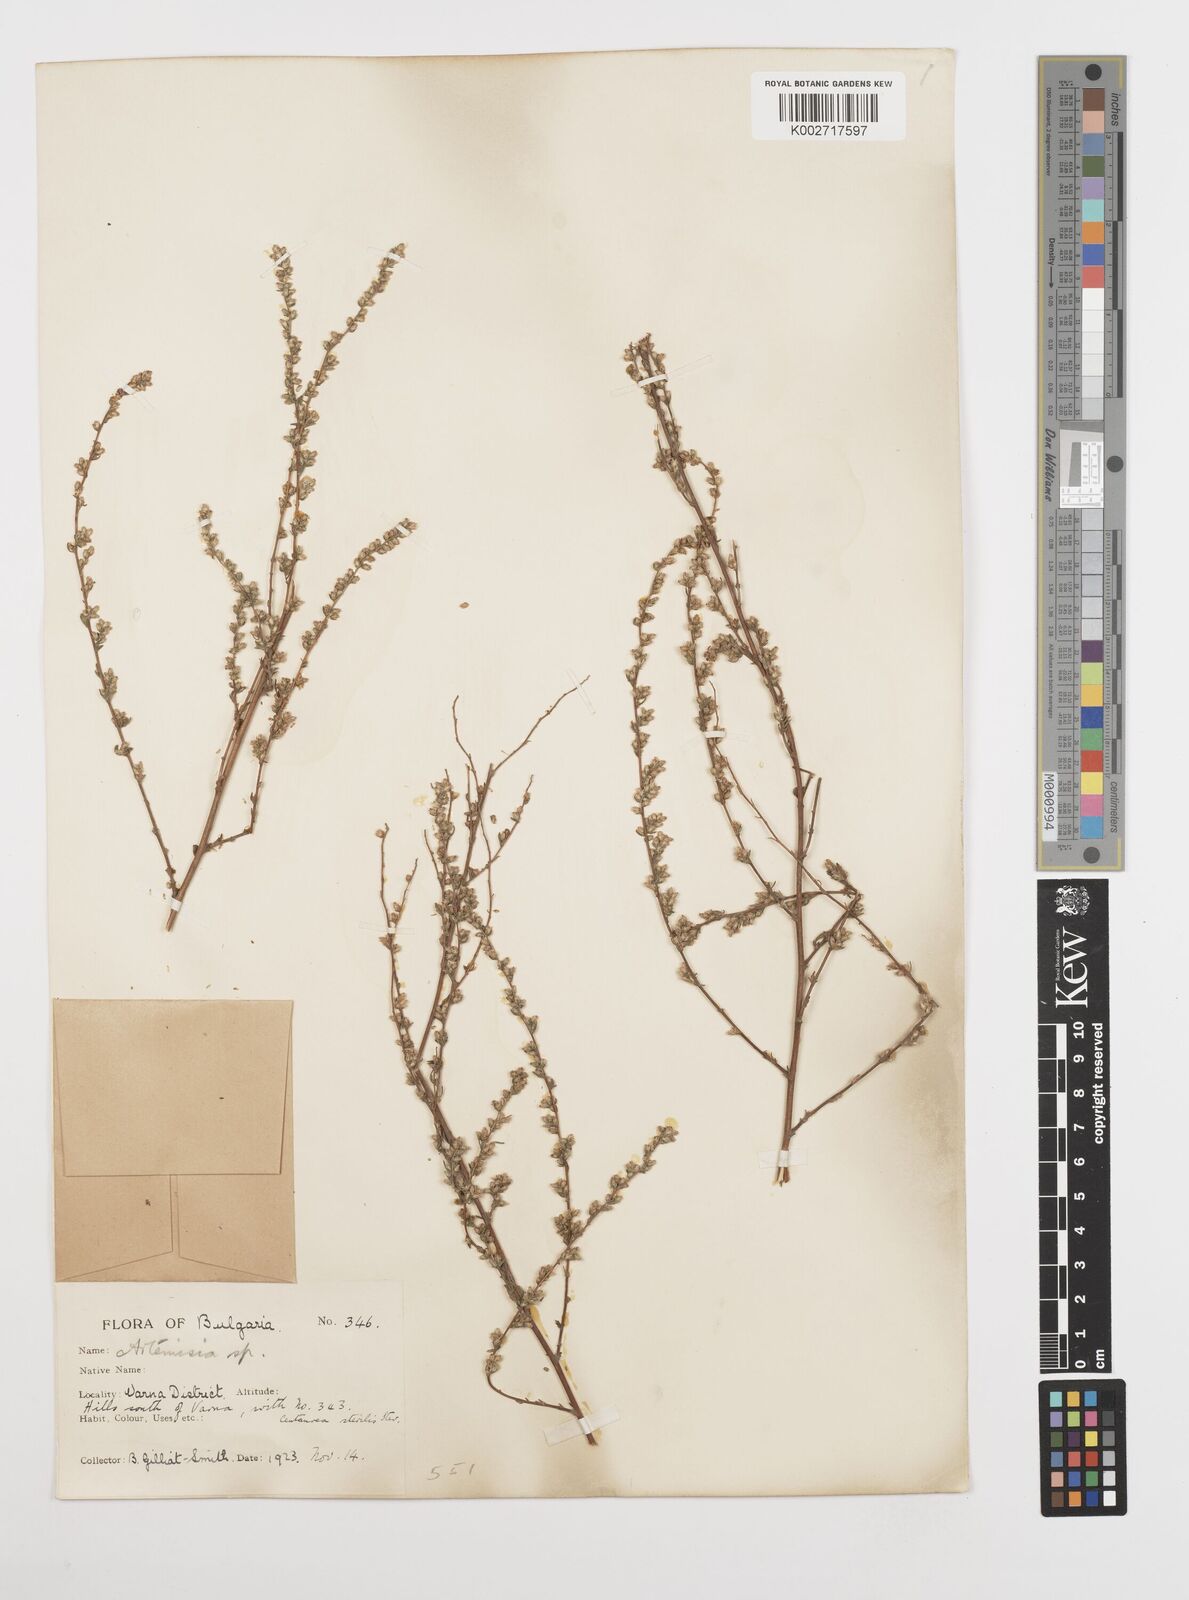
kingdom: Plantae
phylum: Tracheophyta
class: Magnoliopsida
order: Asterales
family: Asteraceae
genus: Artemisia
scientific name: Artemisia campestris
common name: Field wormwood
